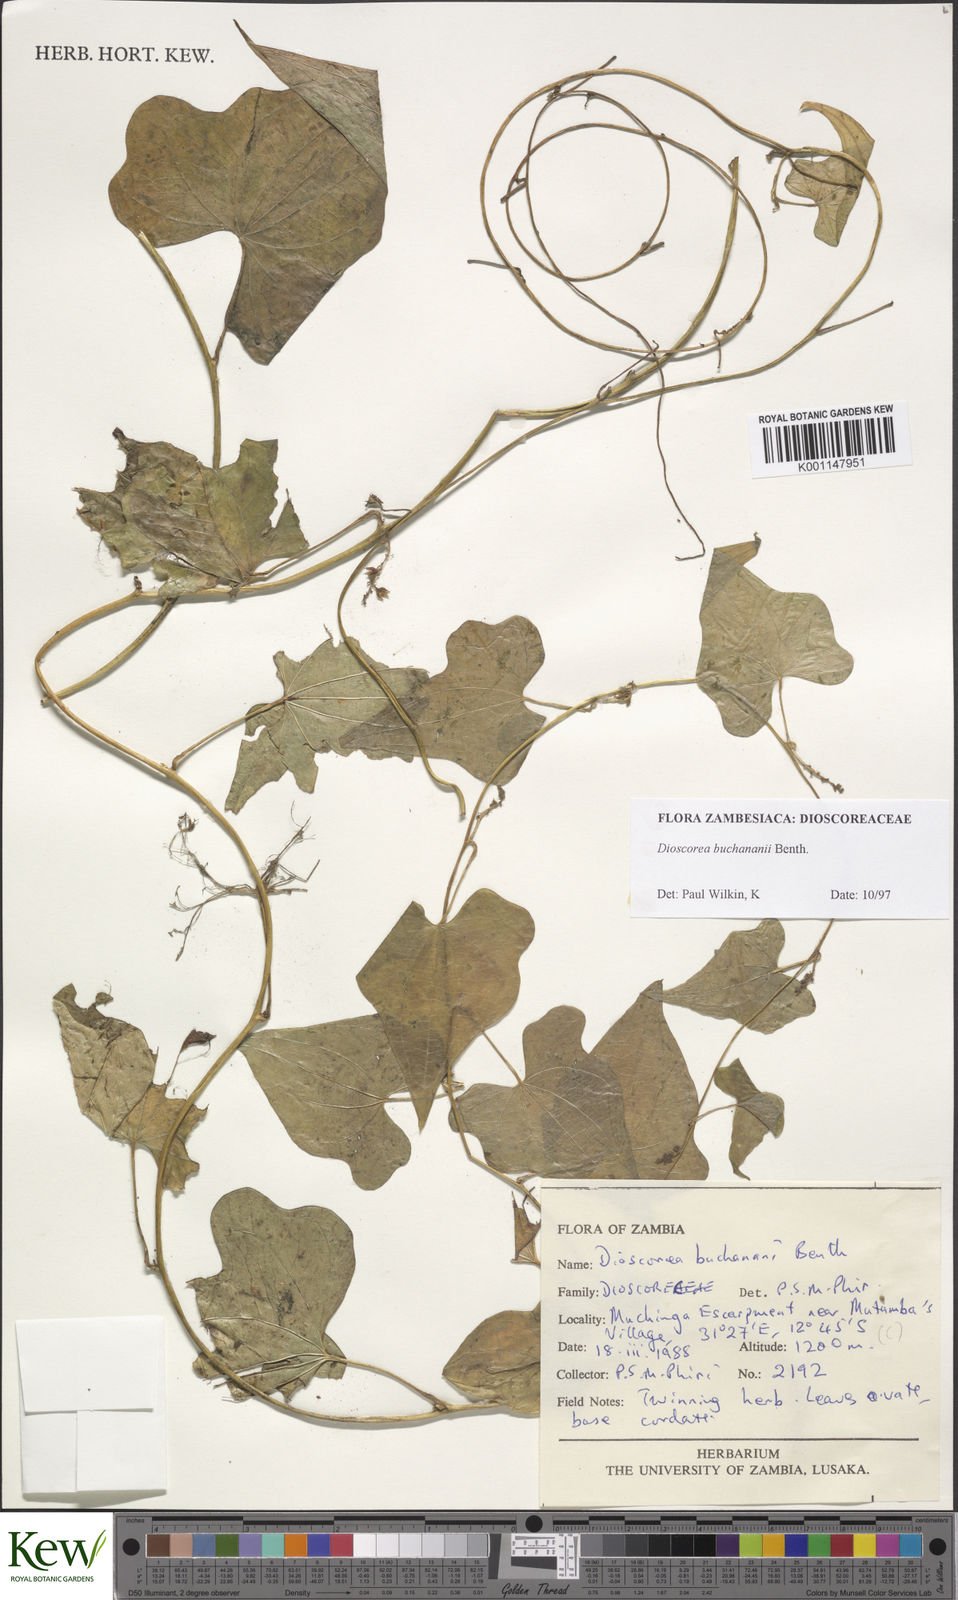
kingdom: Plantae
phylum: Tracheophyta
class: Liliopsida
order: Dioscoreales
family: Dioscoreaceae
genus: Dioscorea
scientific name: Dioscorea buchananii
